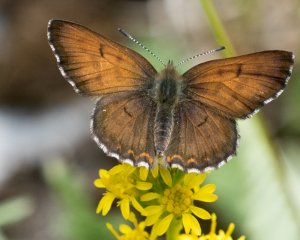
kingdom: Animalia
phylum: Arthropoda
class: Insecta
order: Lepidoptera
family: Lycaenidae
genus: Lycaena
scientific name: Lycaena mariposa
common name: Mariposa Copper
